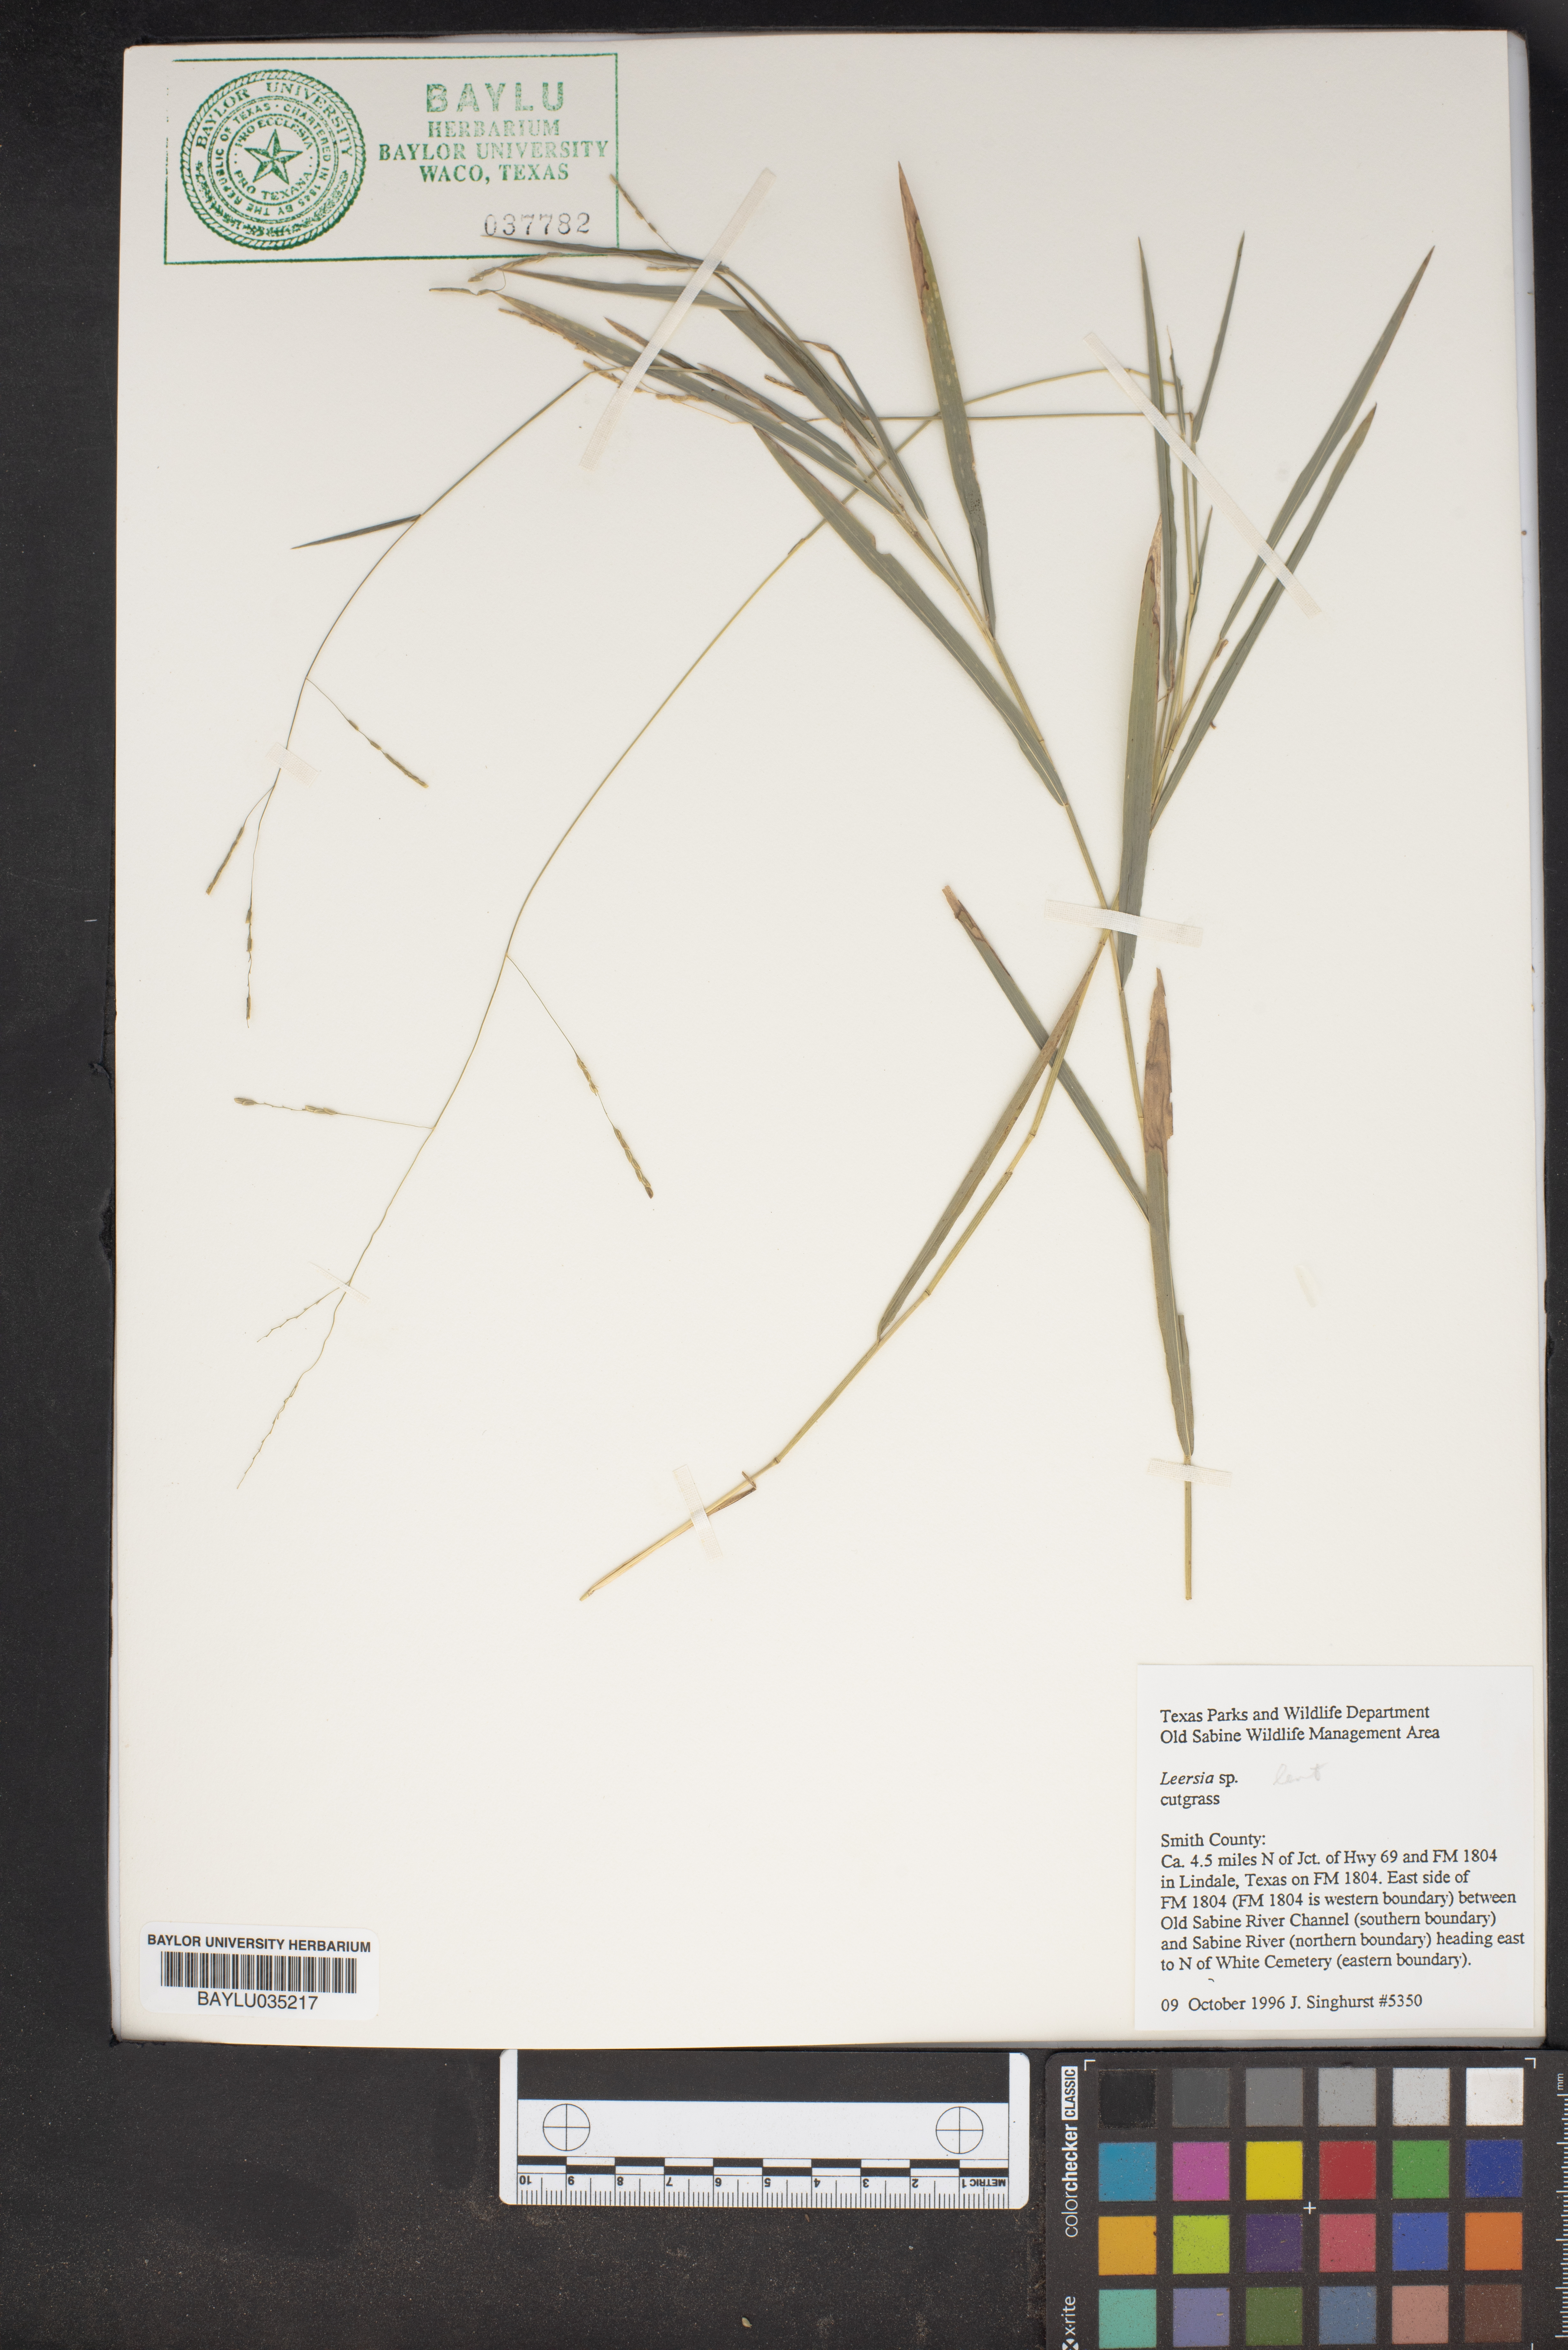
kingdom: Plantae
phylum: Tracheophyta
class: Liliopsida
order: Poales
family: Poaceae
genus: Leersia
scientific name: Leersia
